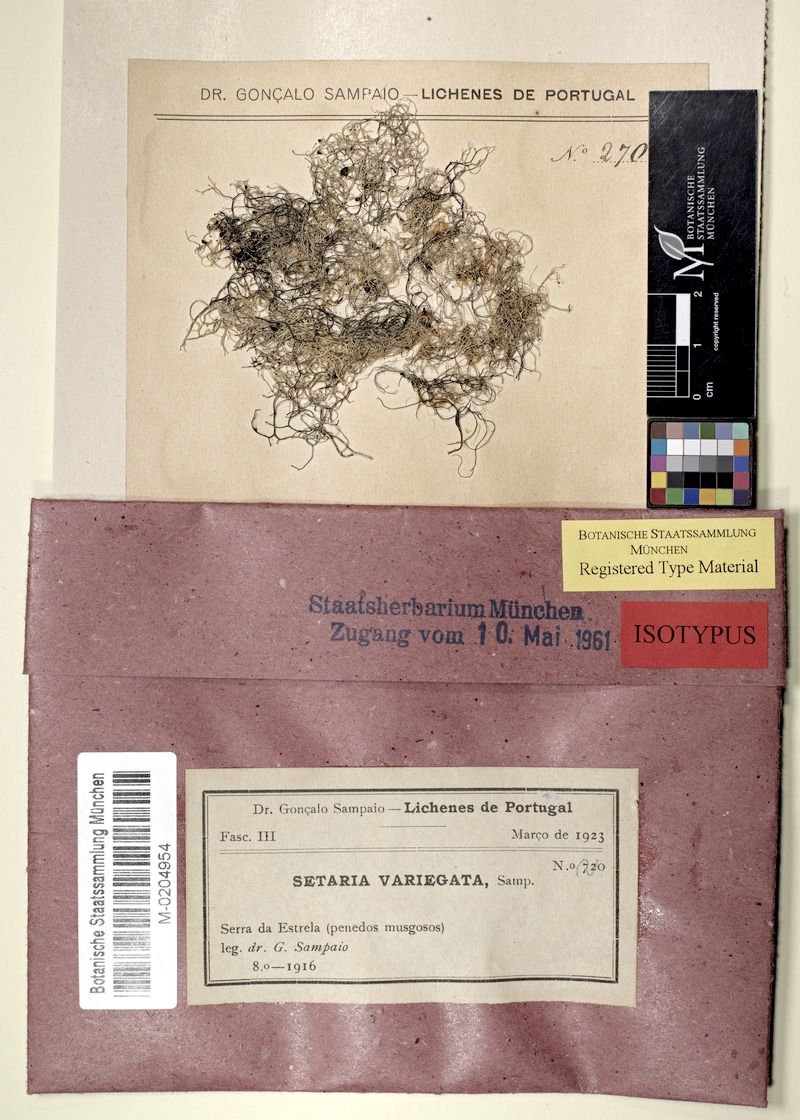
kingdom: Fungi
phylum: Ascomycota
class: Lecanoromycetes
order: Lecanorales
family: Parmeliaceae
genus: Alectoria
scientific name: Alectoria ochroleuca
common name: Alpine sulphur-tresses
